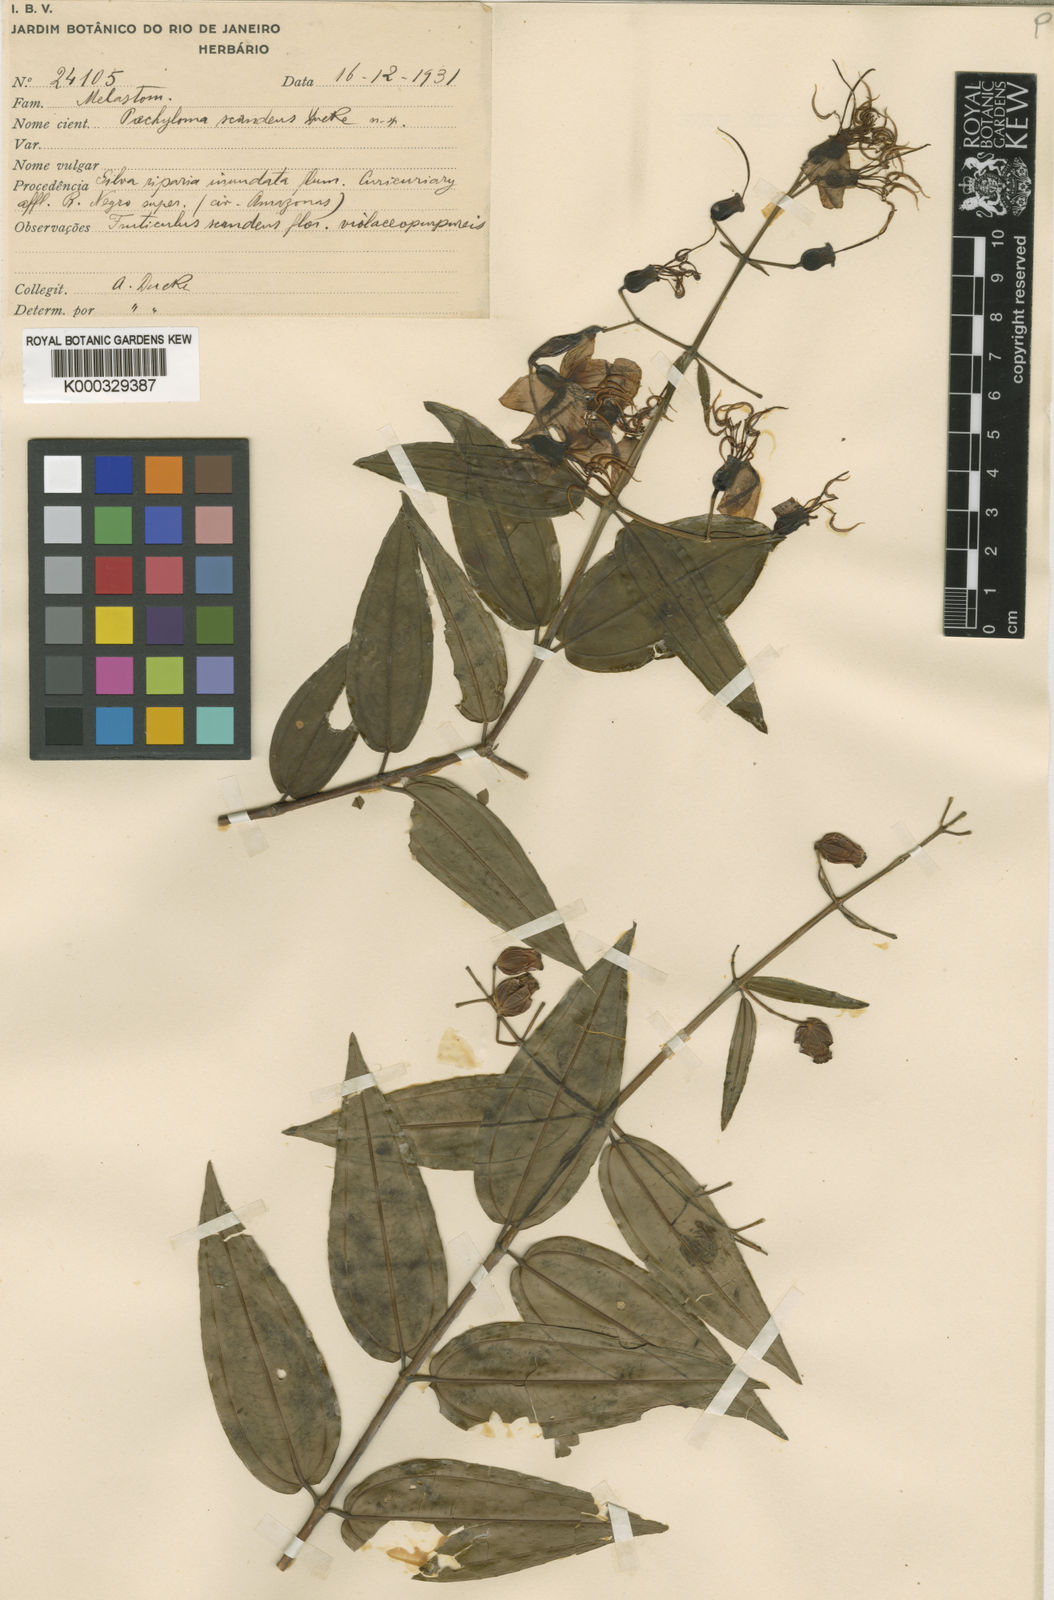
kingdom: Plantae
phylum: Tracheophyta
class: Magnoliopsida
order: Myrtales
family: Melastomataceae
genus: Pachyloma
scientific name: Pachyloma huberioides
